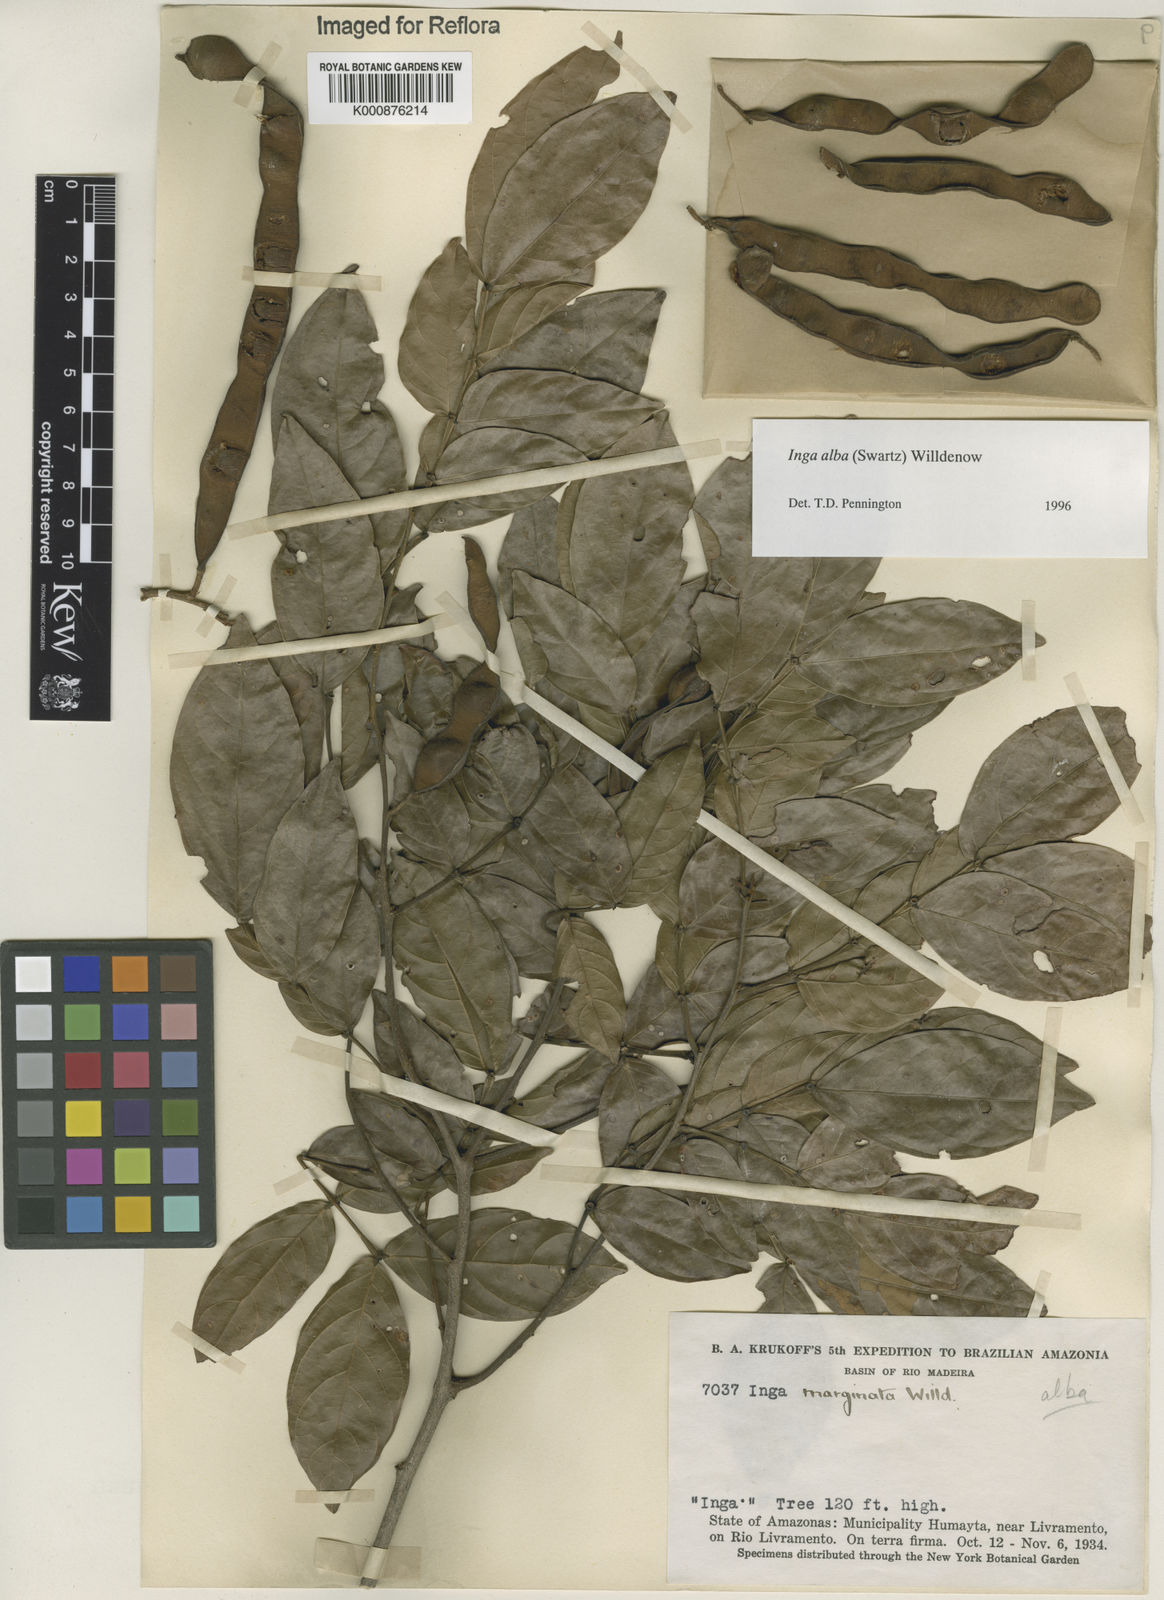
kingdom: Plantae
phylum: Tracheophyta
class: Magnoliopsida
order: Fabales
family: Fabaceae
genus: Inga
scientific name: Inga alba
